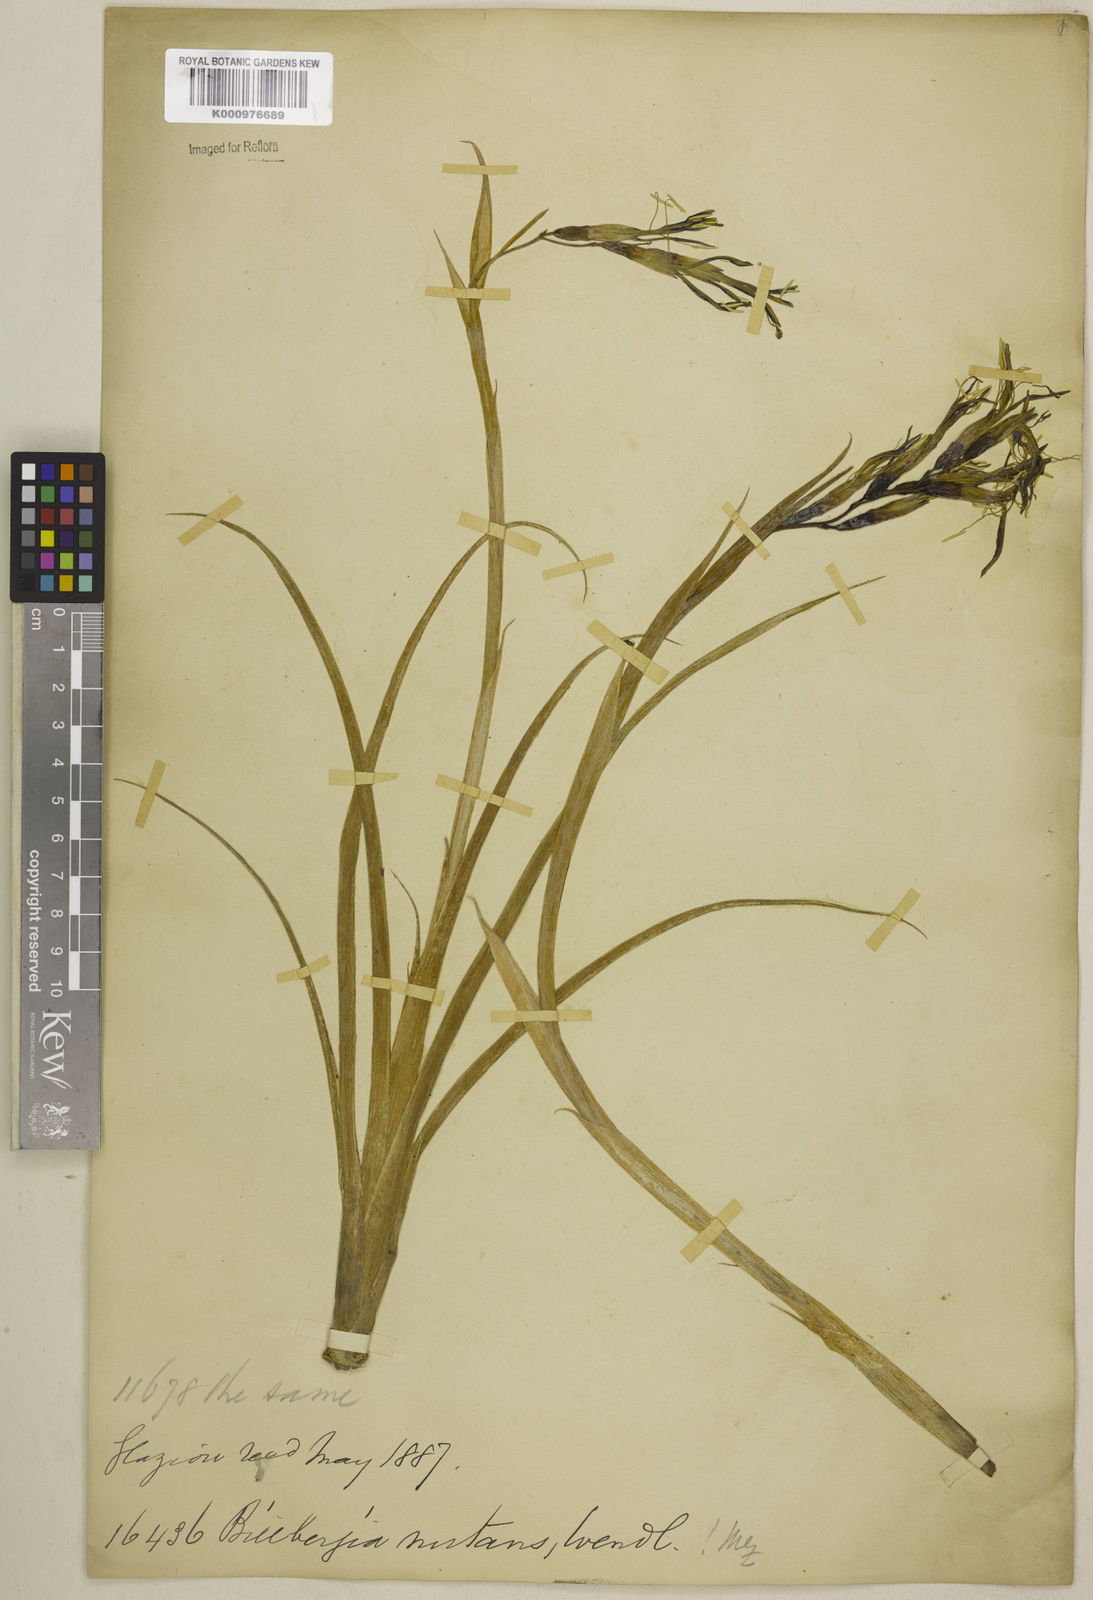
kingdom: Plantae
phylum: Tracheophyta
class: Liliopsida
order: Poales
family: Bromeliaceae
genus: Billbergia
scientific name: Billbergia nutans
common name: Friendship-plant
